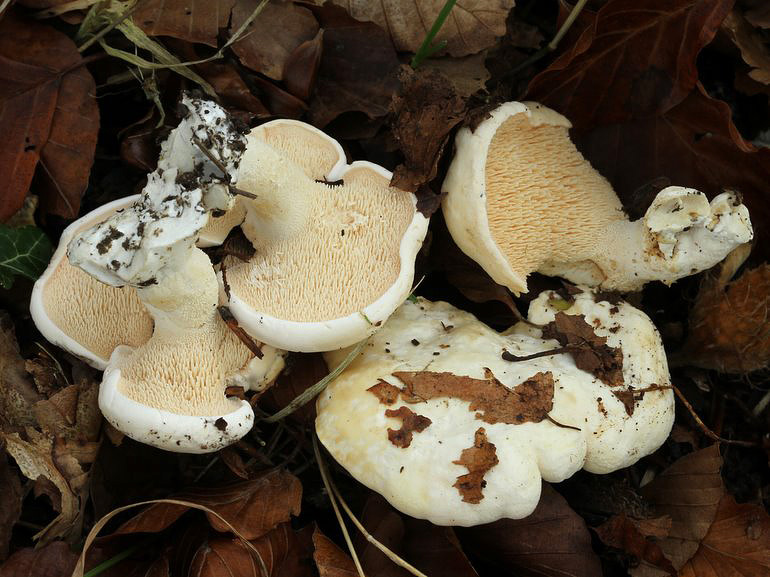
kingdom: Fungi
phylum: Basidiomycota
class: Agaricomycetes
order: Cantharellales
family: Hydnaceae
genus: Hydnum
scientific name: Hydnum repandum
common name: hvid pigsvamp
